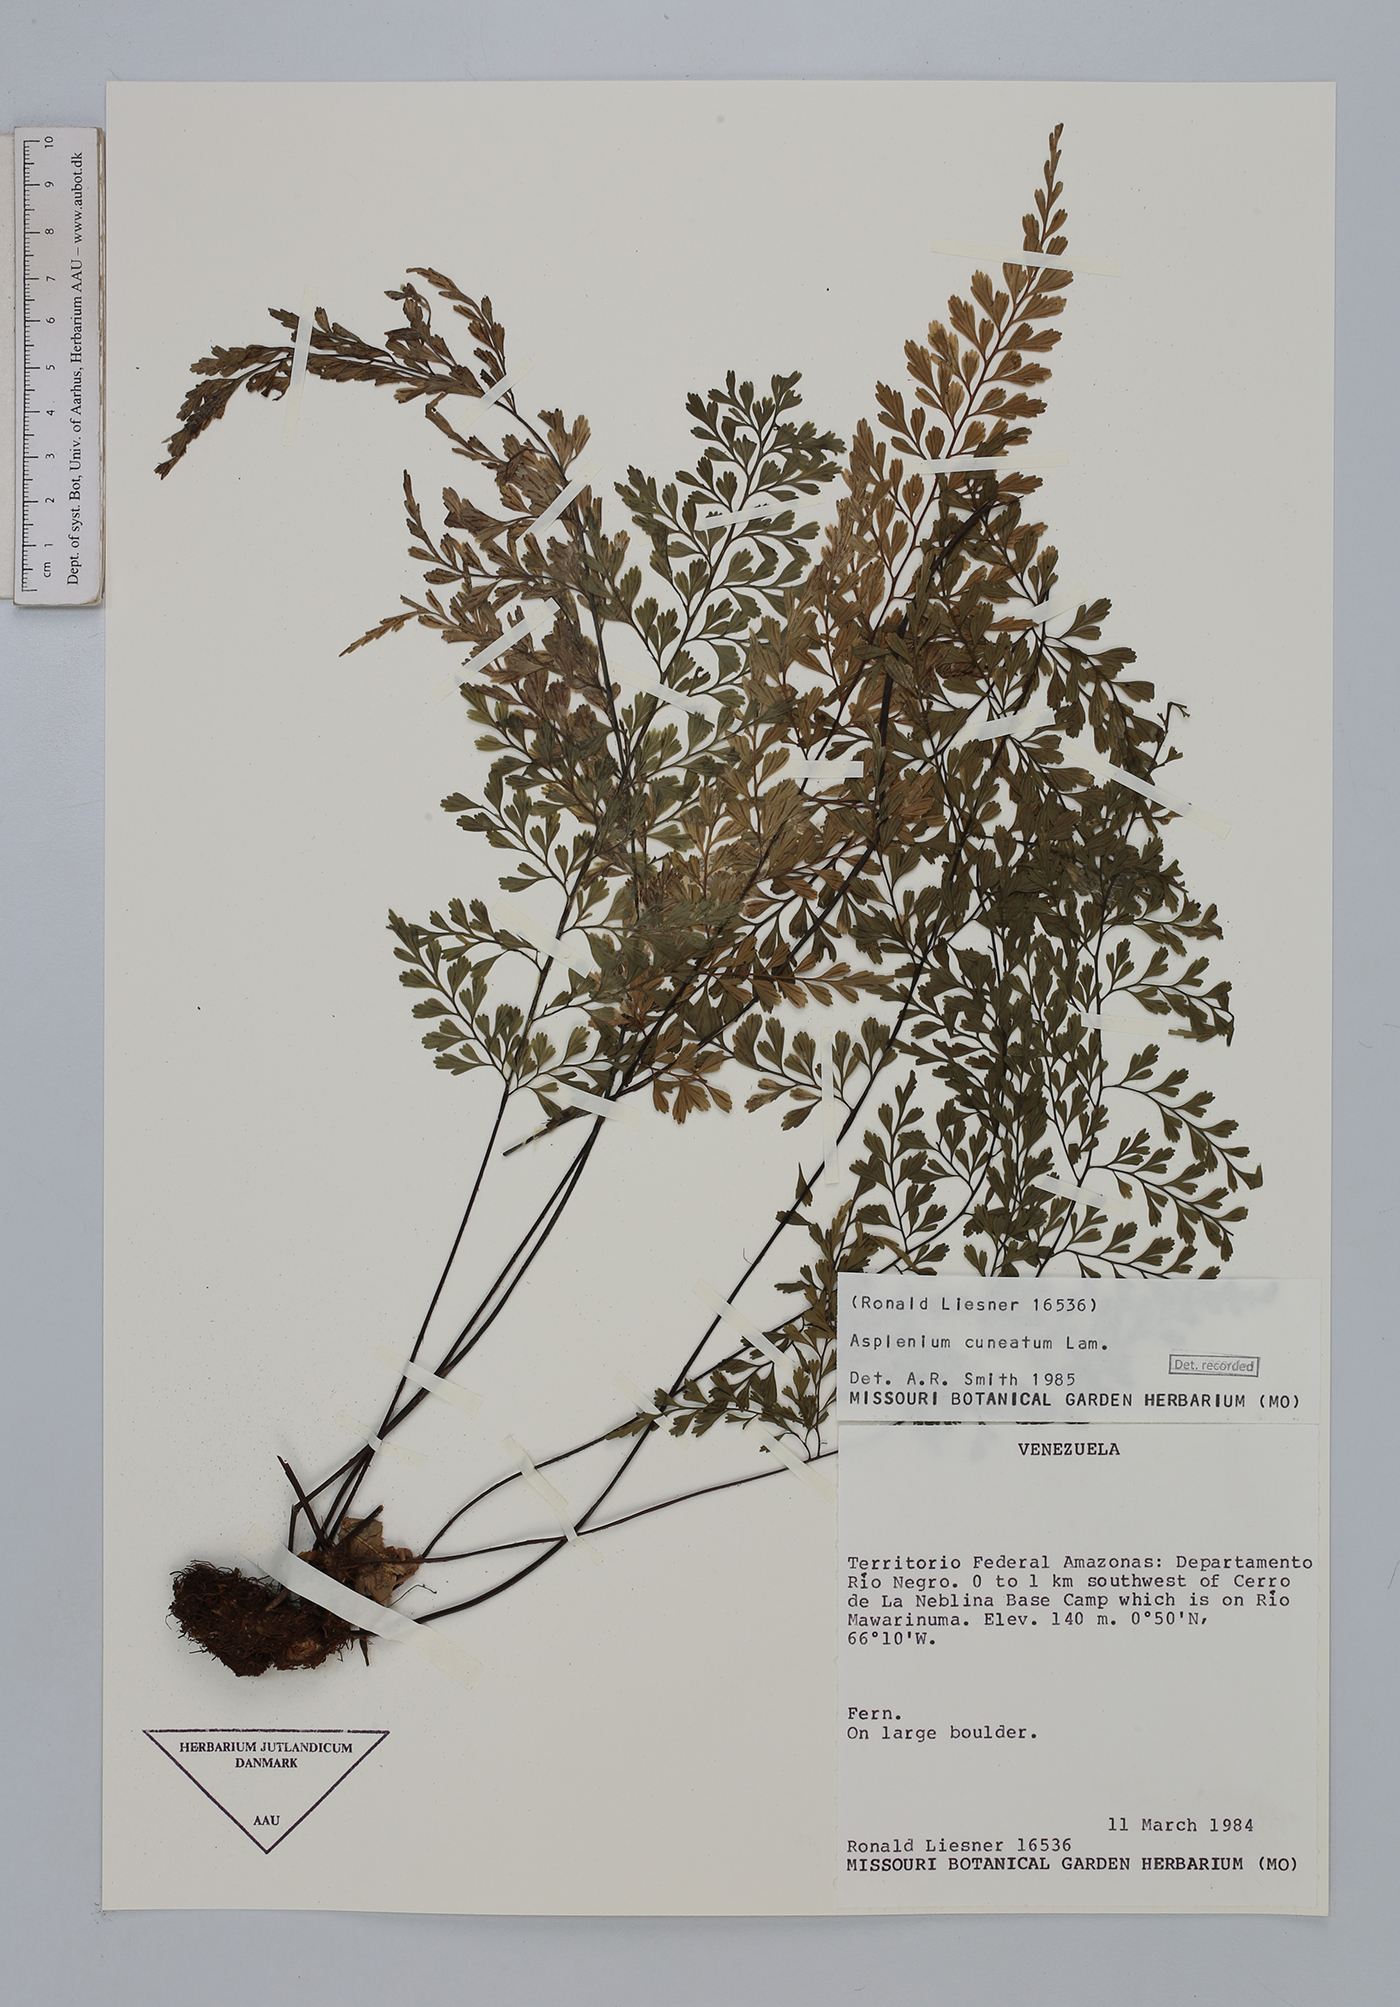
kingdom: Plantae
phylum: Tracheophyta
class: Polypodiopsida
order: Polypodiales
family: Aspleniaceae
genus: Asplenium
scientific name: Asplenium cuneatum
